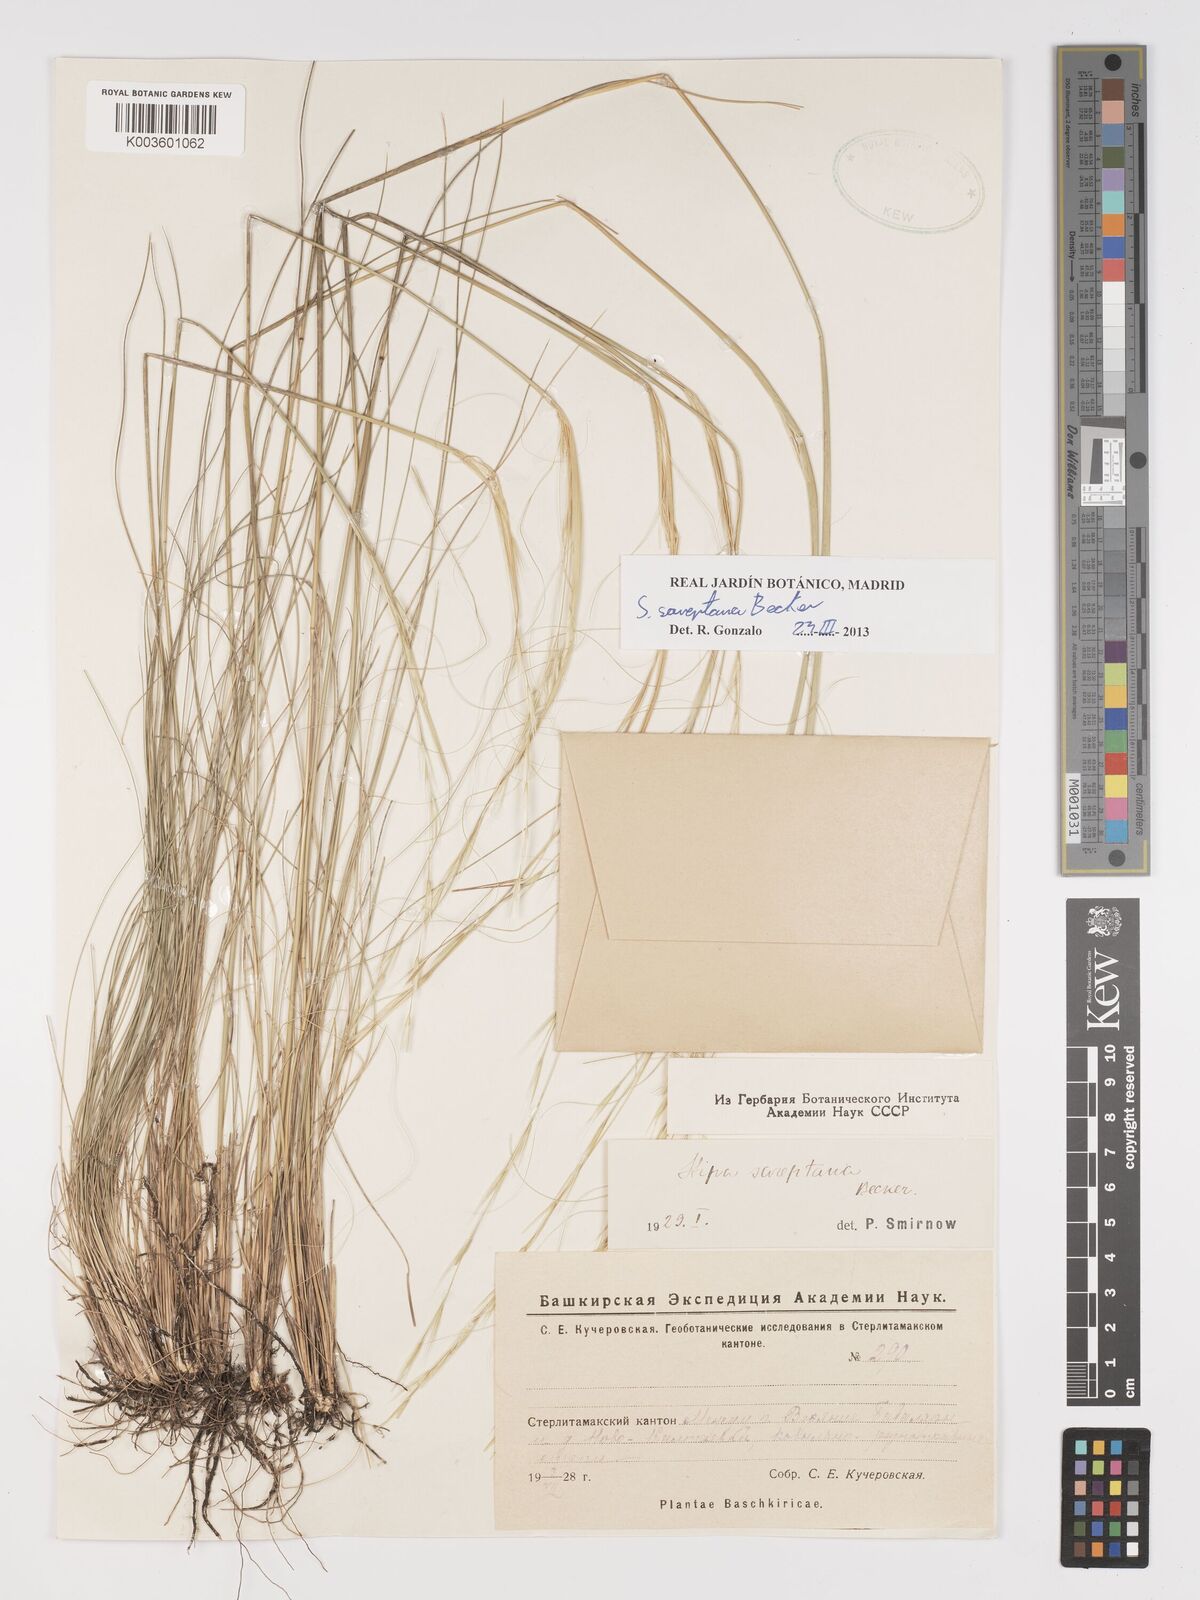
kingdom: Plantae
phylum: Tracheophyta
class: Liliopsida
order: Poales
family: Poaceae
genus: Stipa
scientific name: Stipa sareptana
